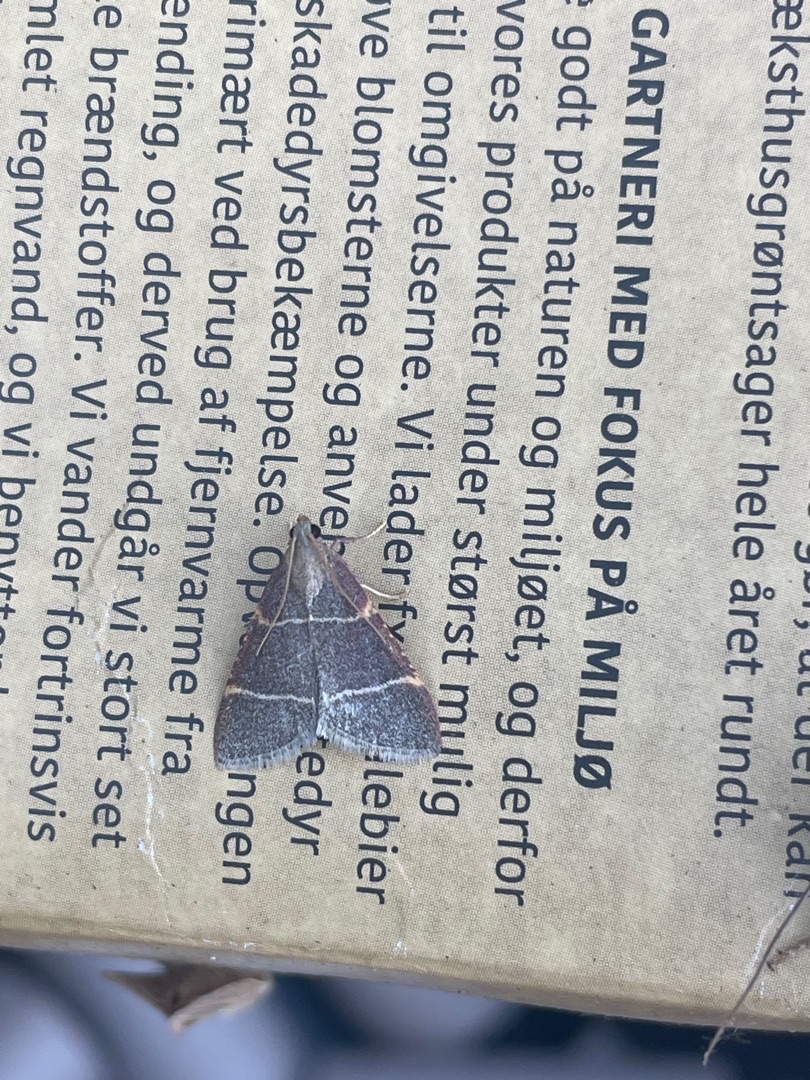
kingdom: Animalia
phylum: Arthropoda
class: Insecta
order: Lepidoptera
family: Pyralidae
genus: Hypsopygia
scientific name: Hypsopygia glaucinalis
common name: Blågråt herkuleshalvmøl
